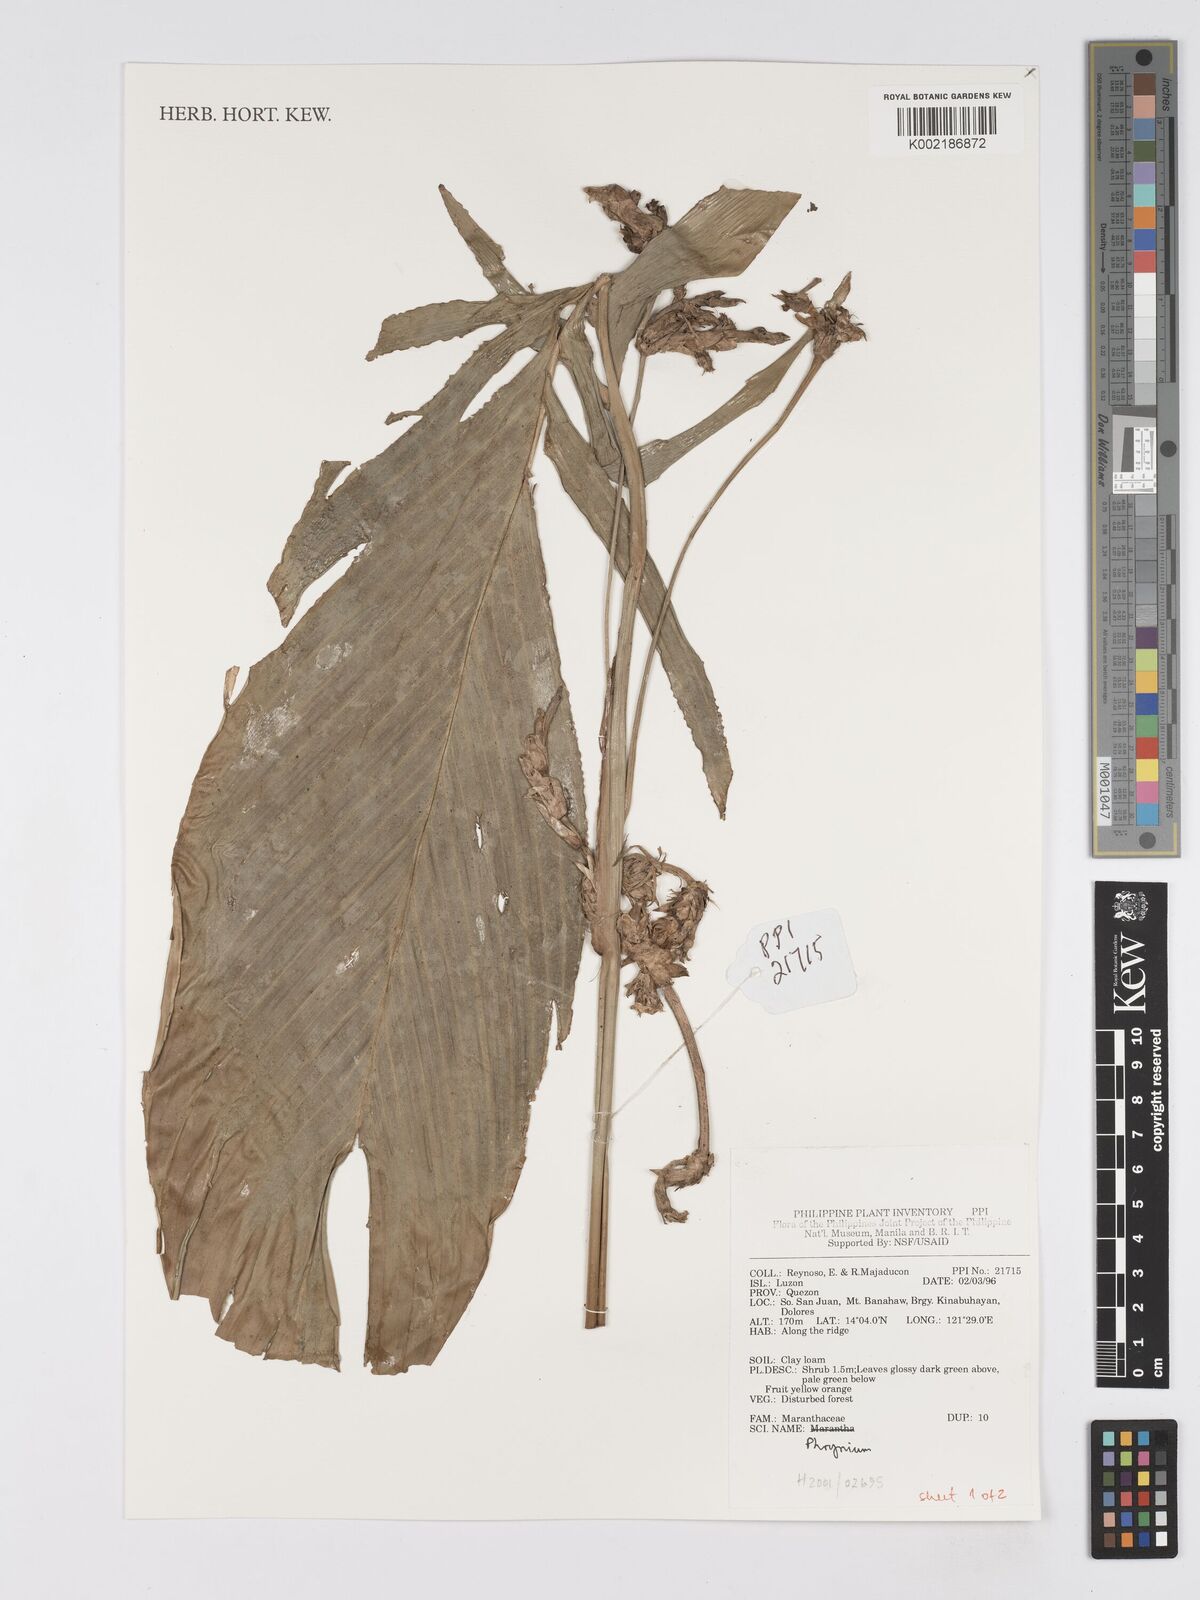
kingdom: Plantae
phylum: Tracheophyta
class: Liliopsida
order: Zingiberales
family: Marantaceae
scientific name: Marantaceae
